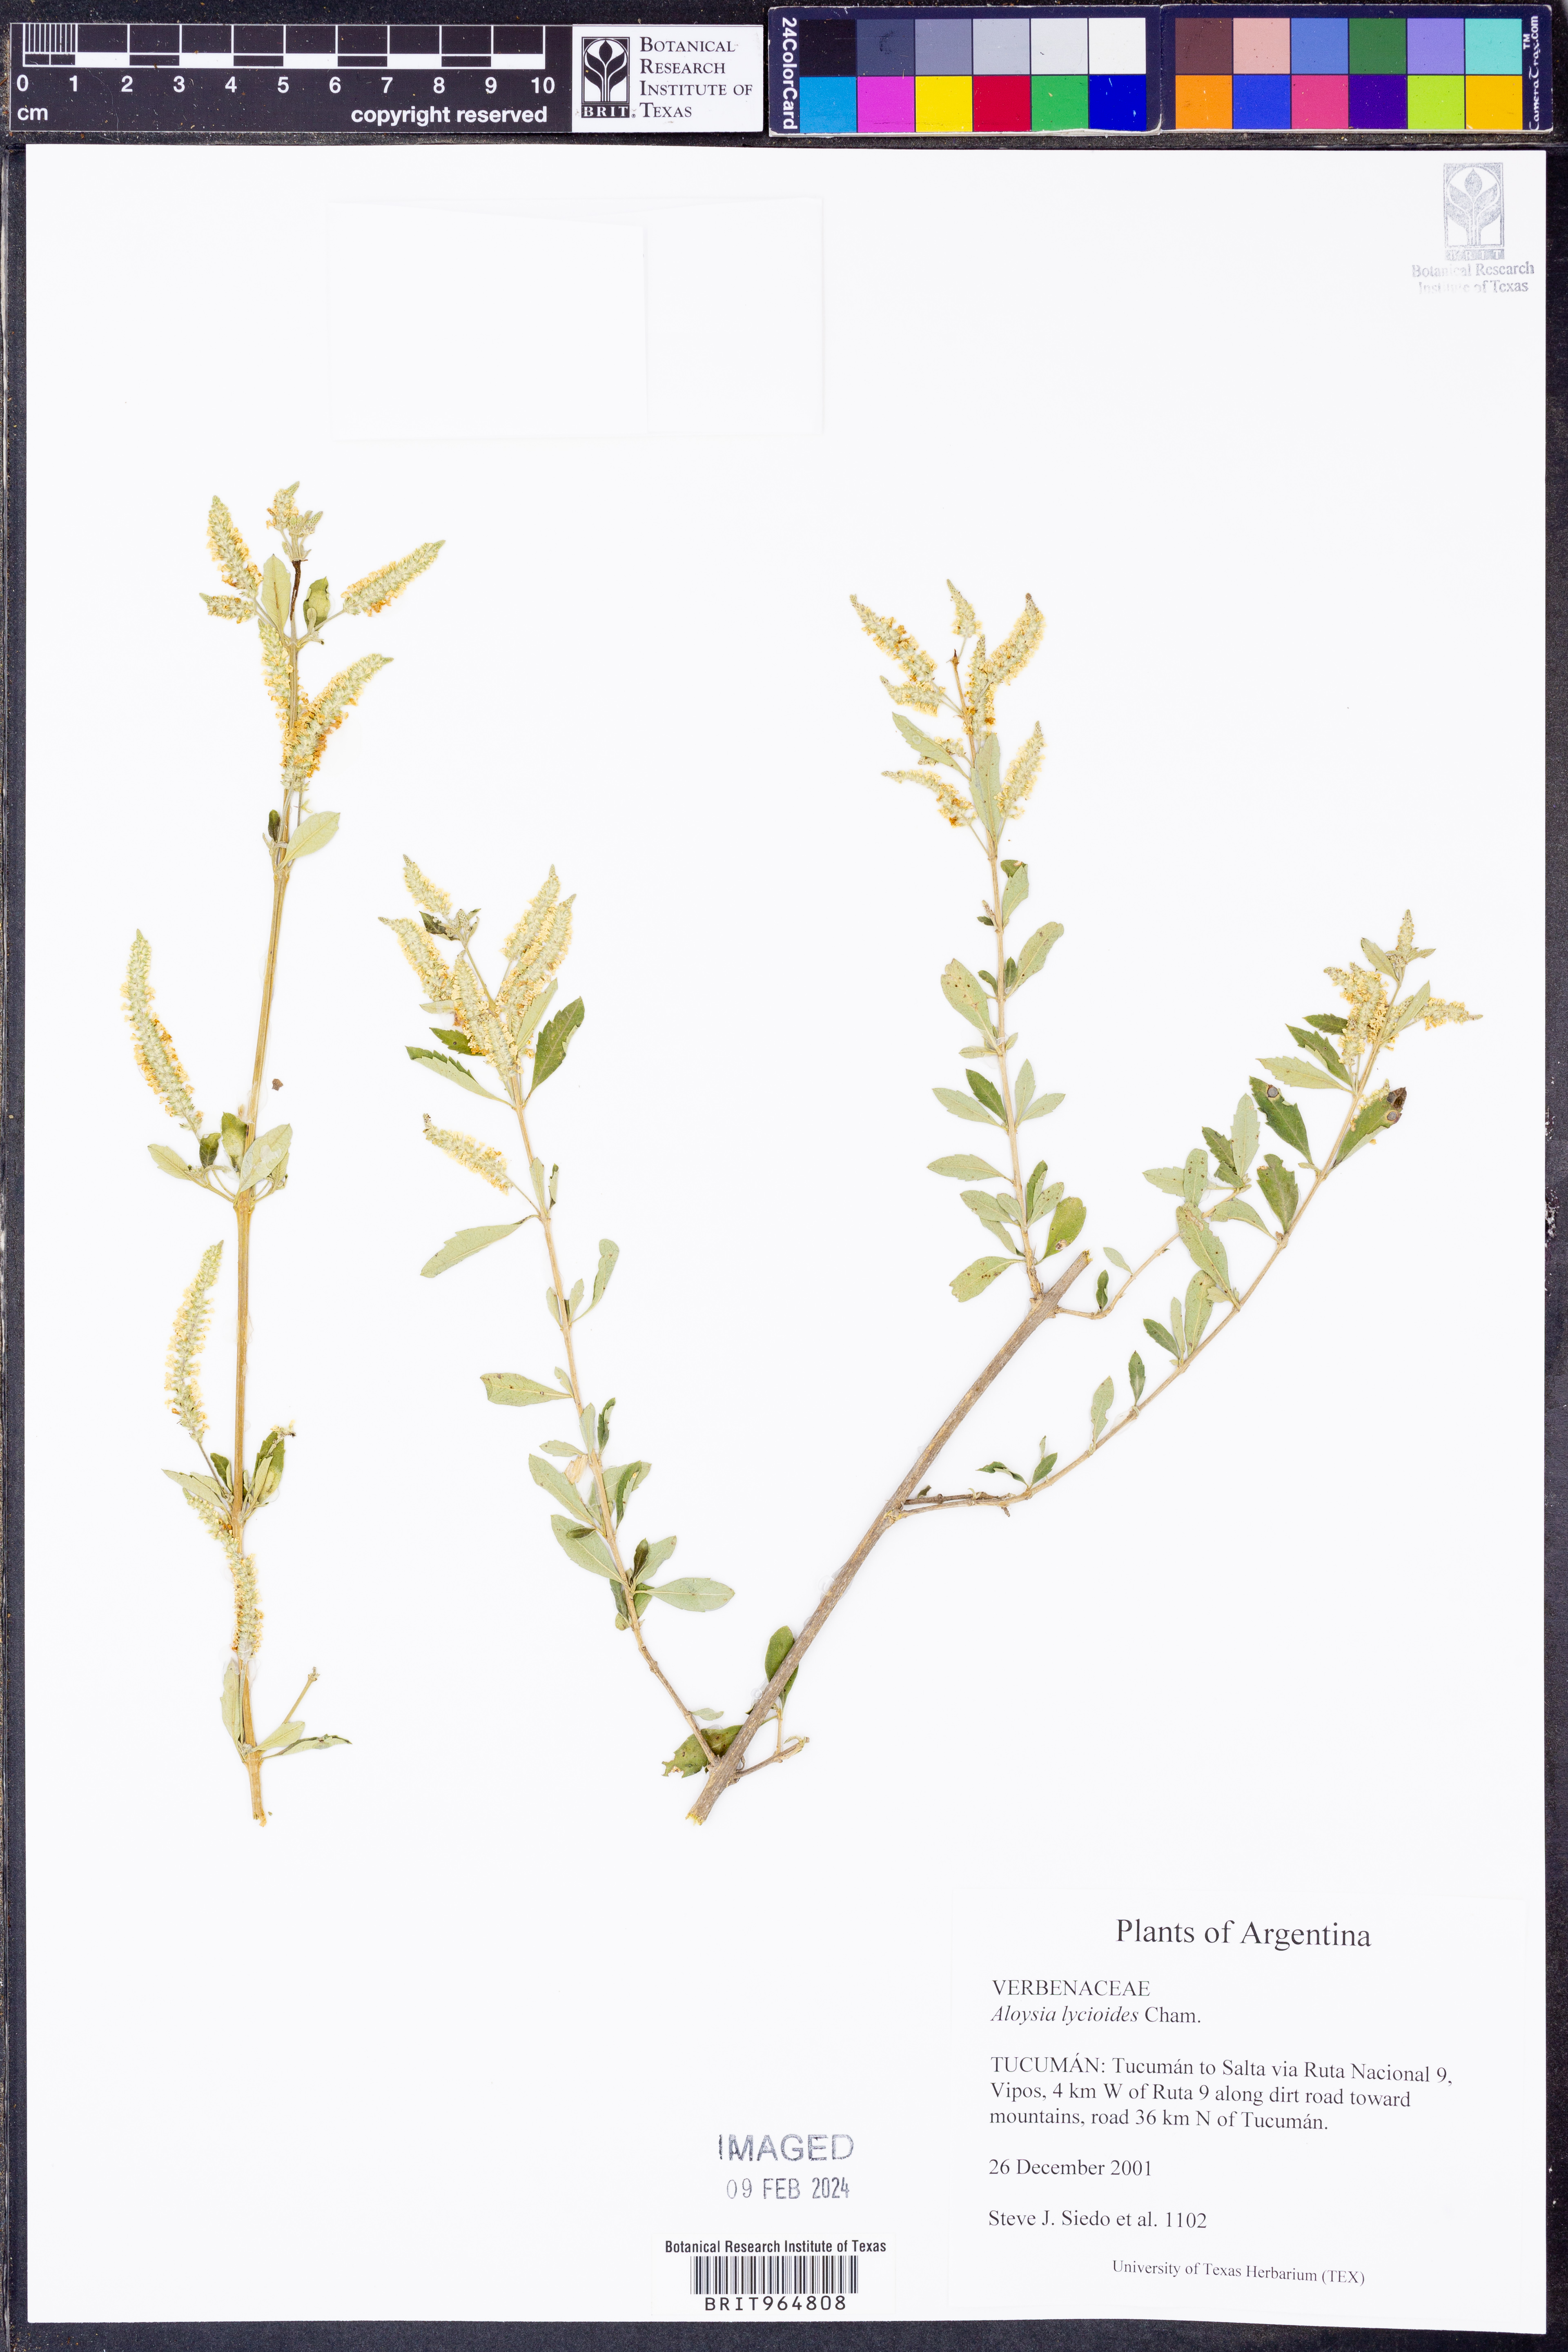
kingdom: Plantae
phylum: Tracheophyta
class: Magnoliopsida
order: Lamiales
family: Verbenaceae
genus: Aloysia
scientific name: Aloysia
